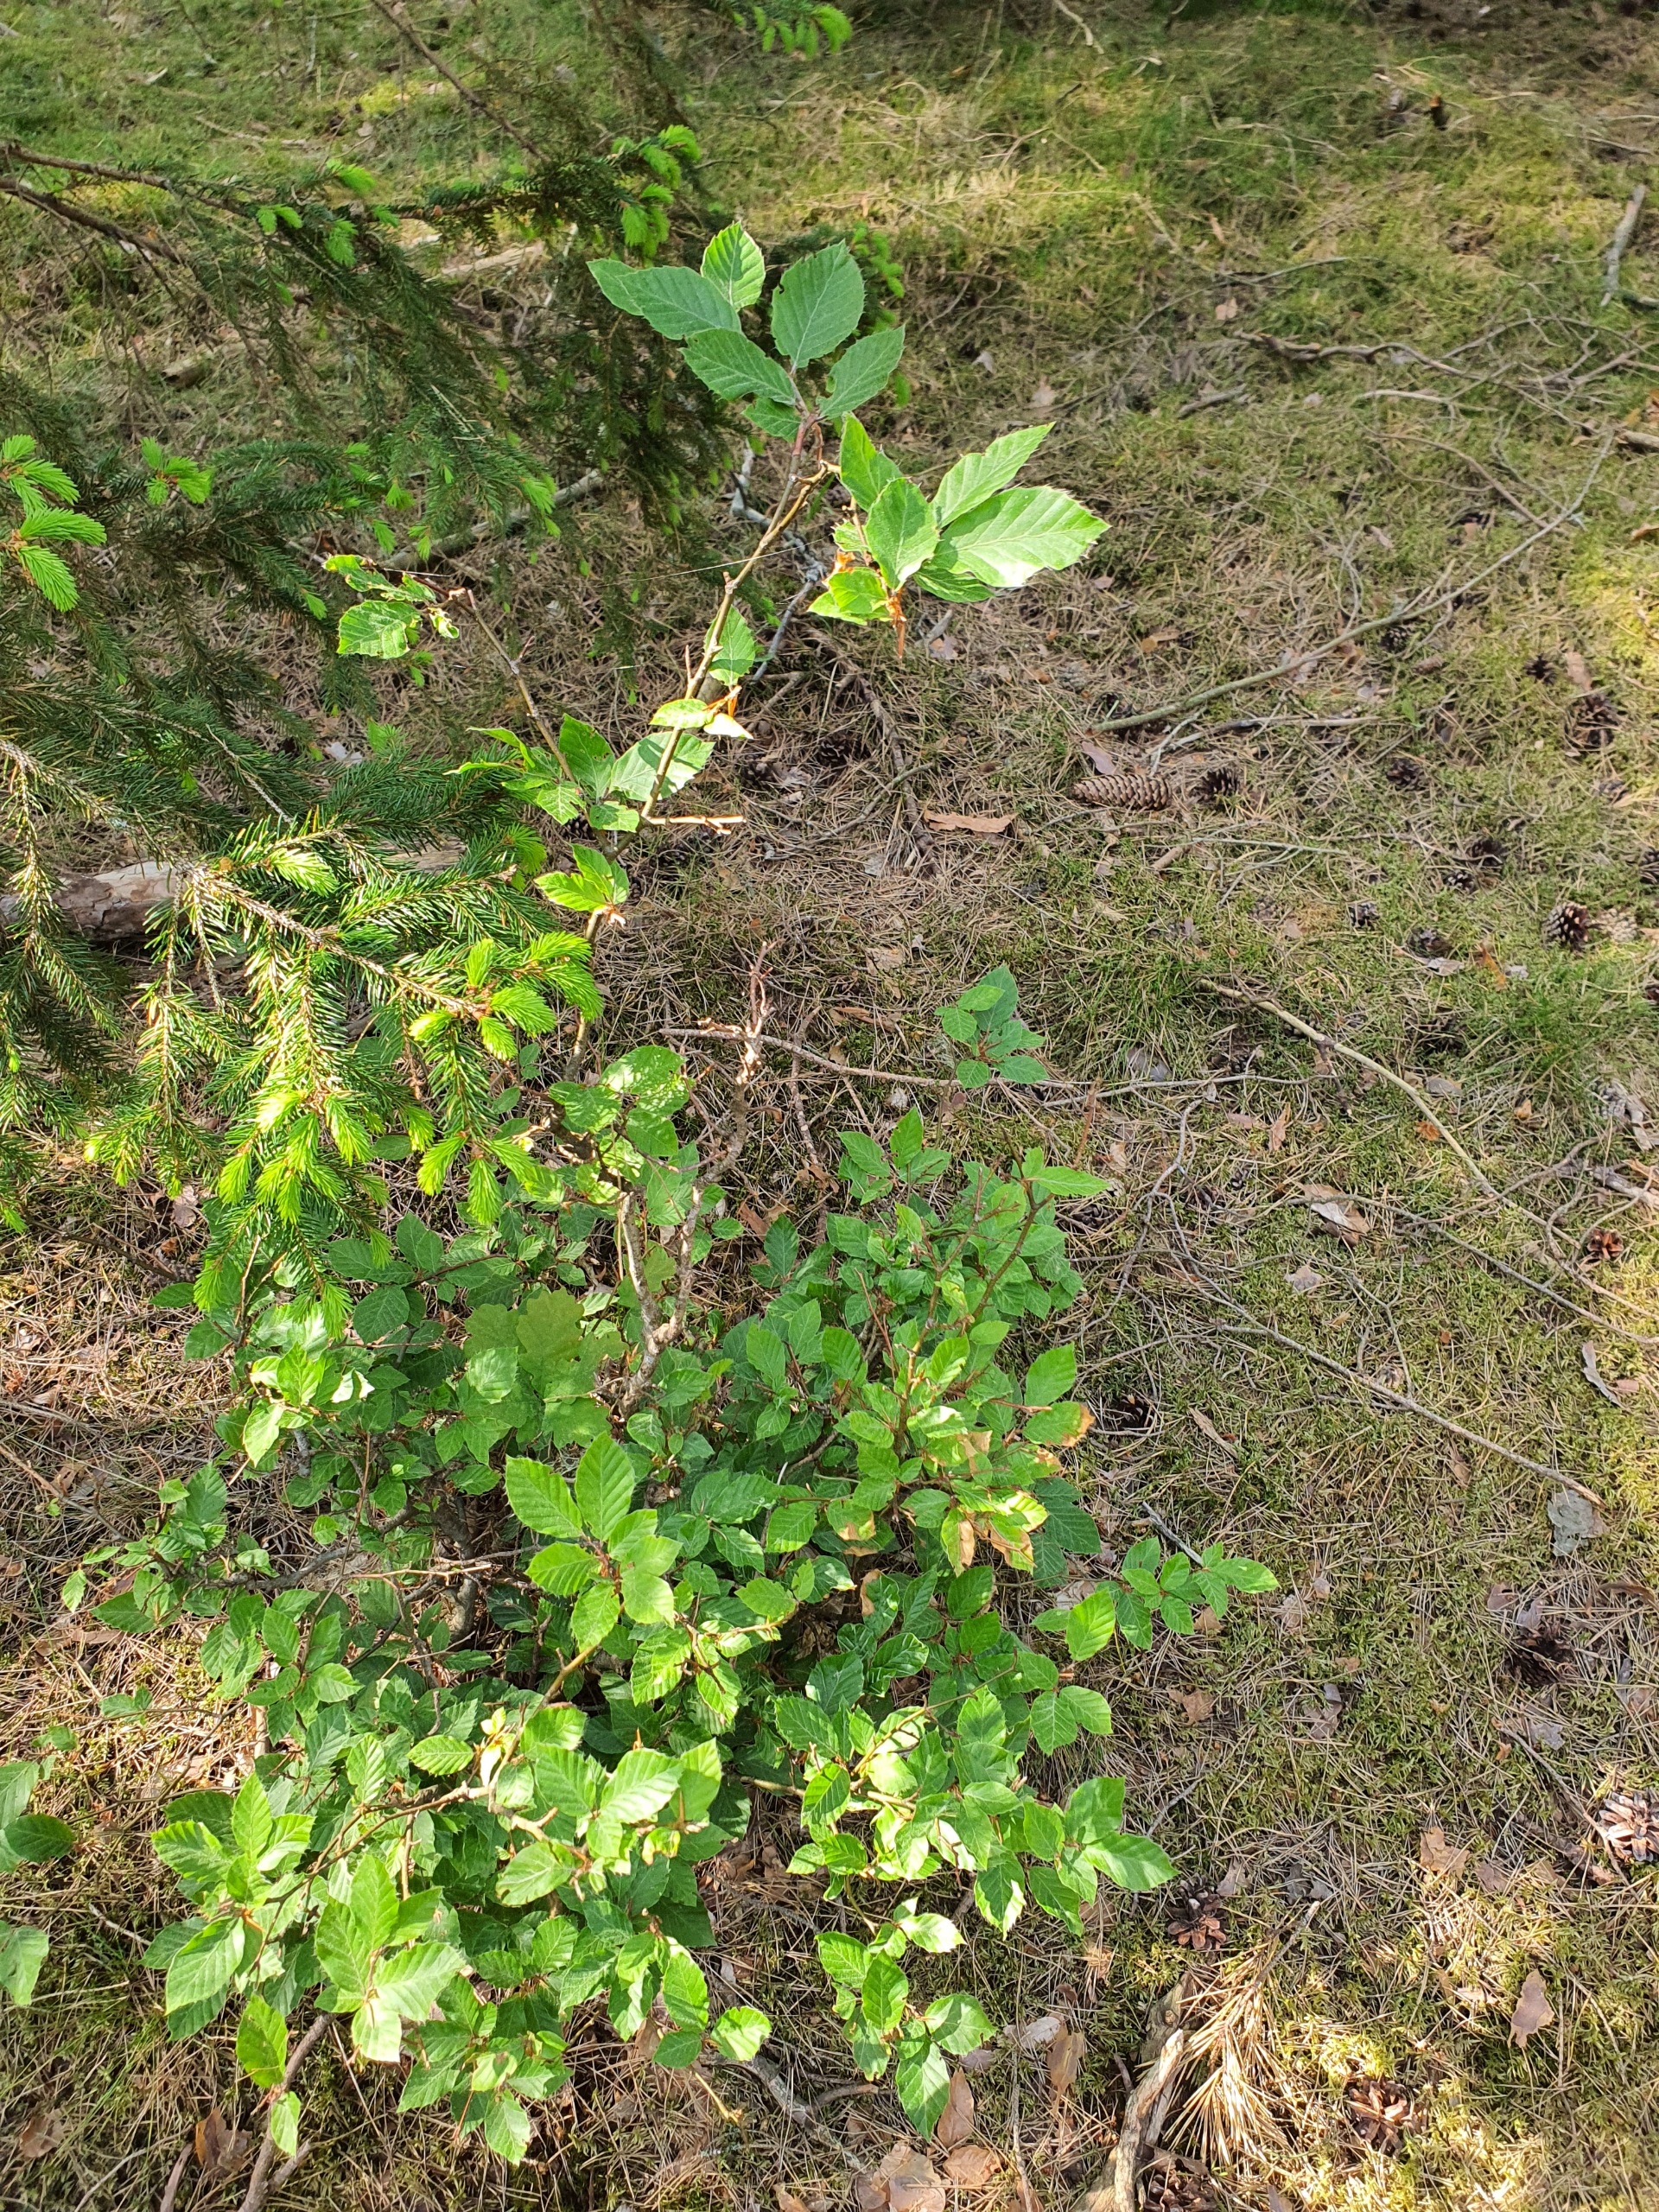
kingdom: Plantae
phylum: Tracheophyta
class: Magnoliopsida
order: Fagales
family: Fagaceae
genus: Fagus
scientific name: Fagus sylvatica
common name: Bøg
